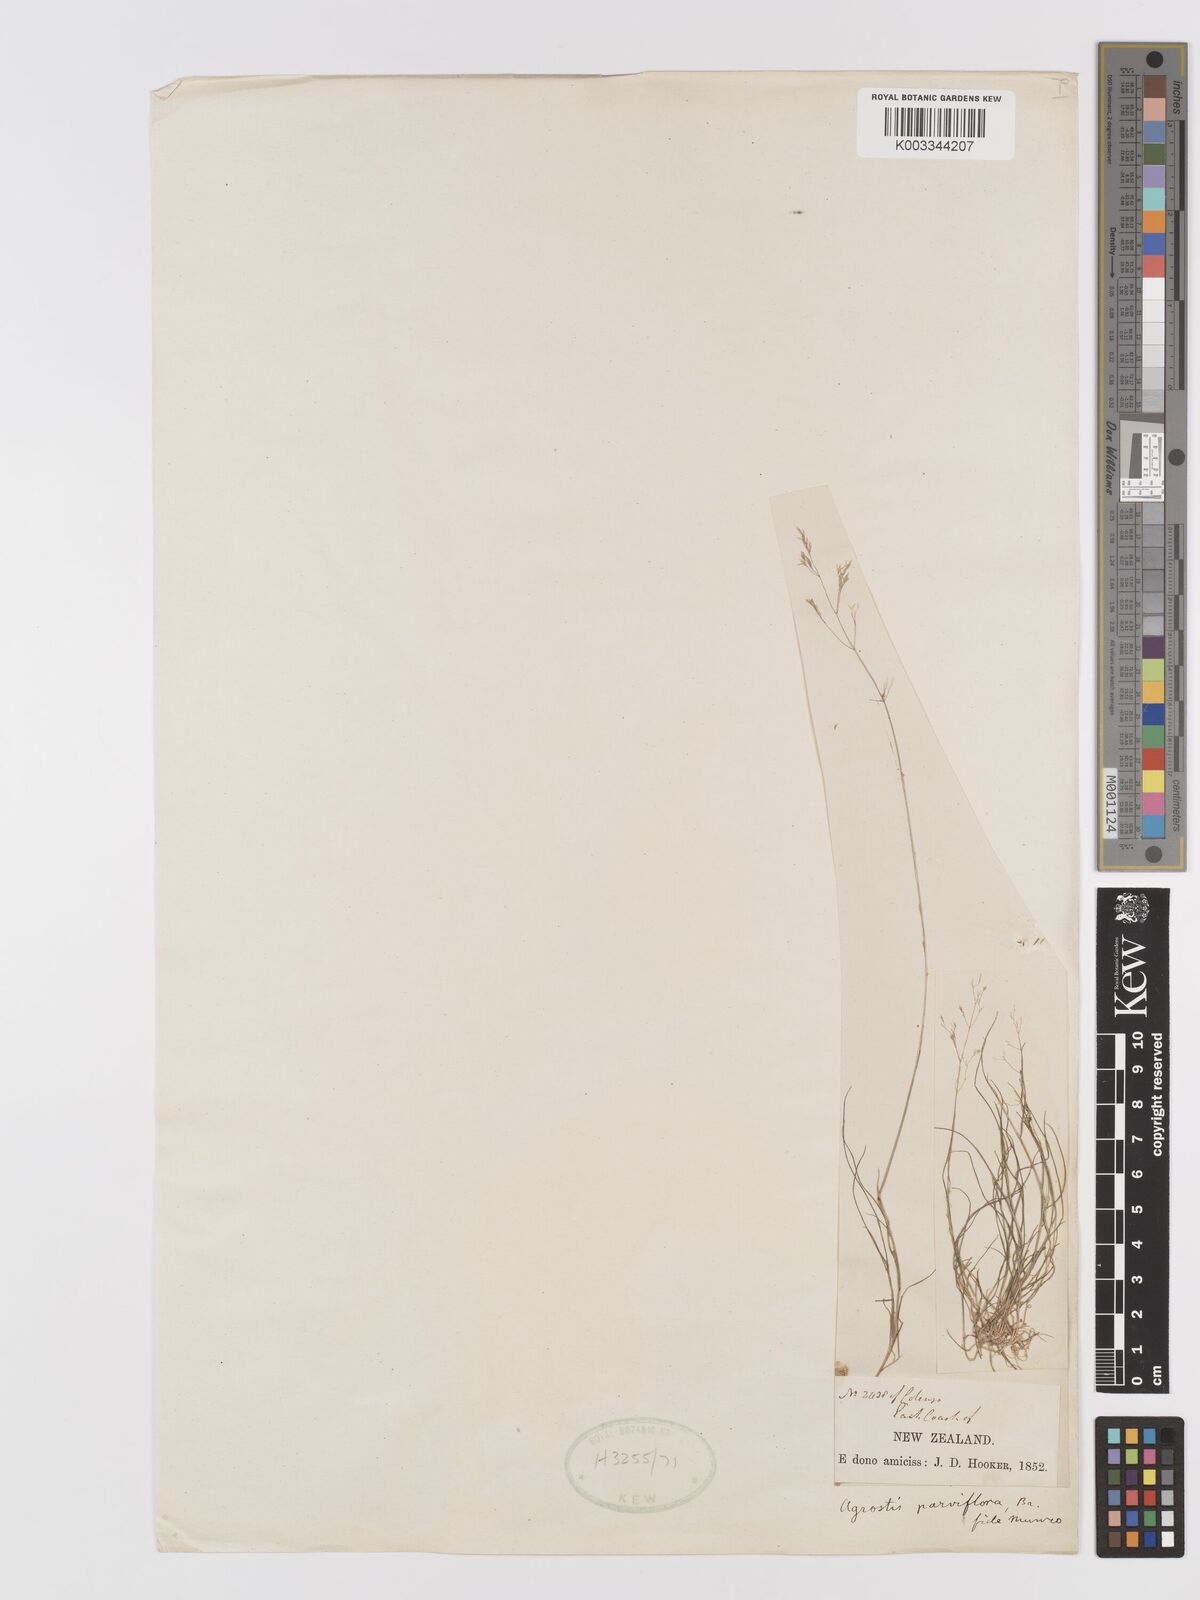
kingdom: Plantae
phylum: Tracheophyta
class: Liliopsida
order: Poales
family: Poaceae
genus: Agrostis
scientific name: Agrostis parviflora
